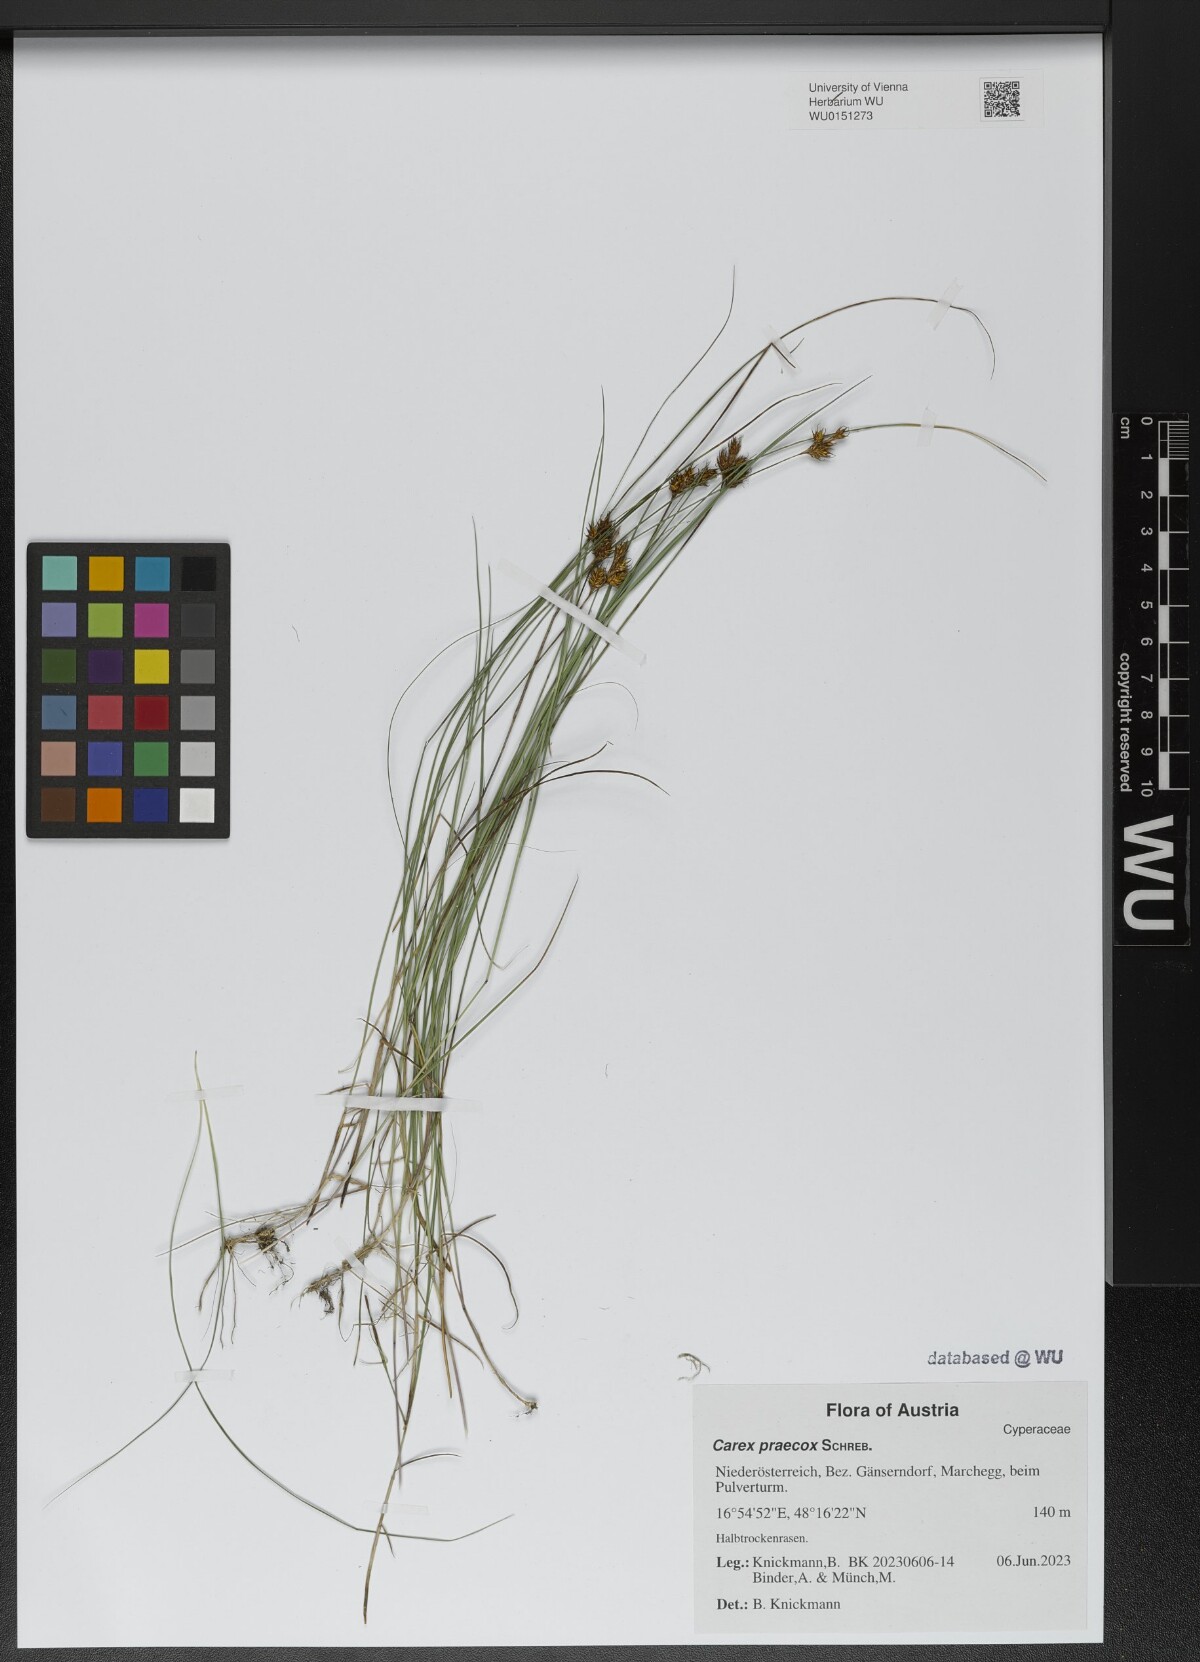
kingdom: Plantae
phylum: Tracheophyta
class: Liliopsida
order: Poales
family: Cyperaceae
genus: Carex
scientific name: Carex praecox
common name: Early sedge
